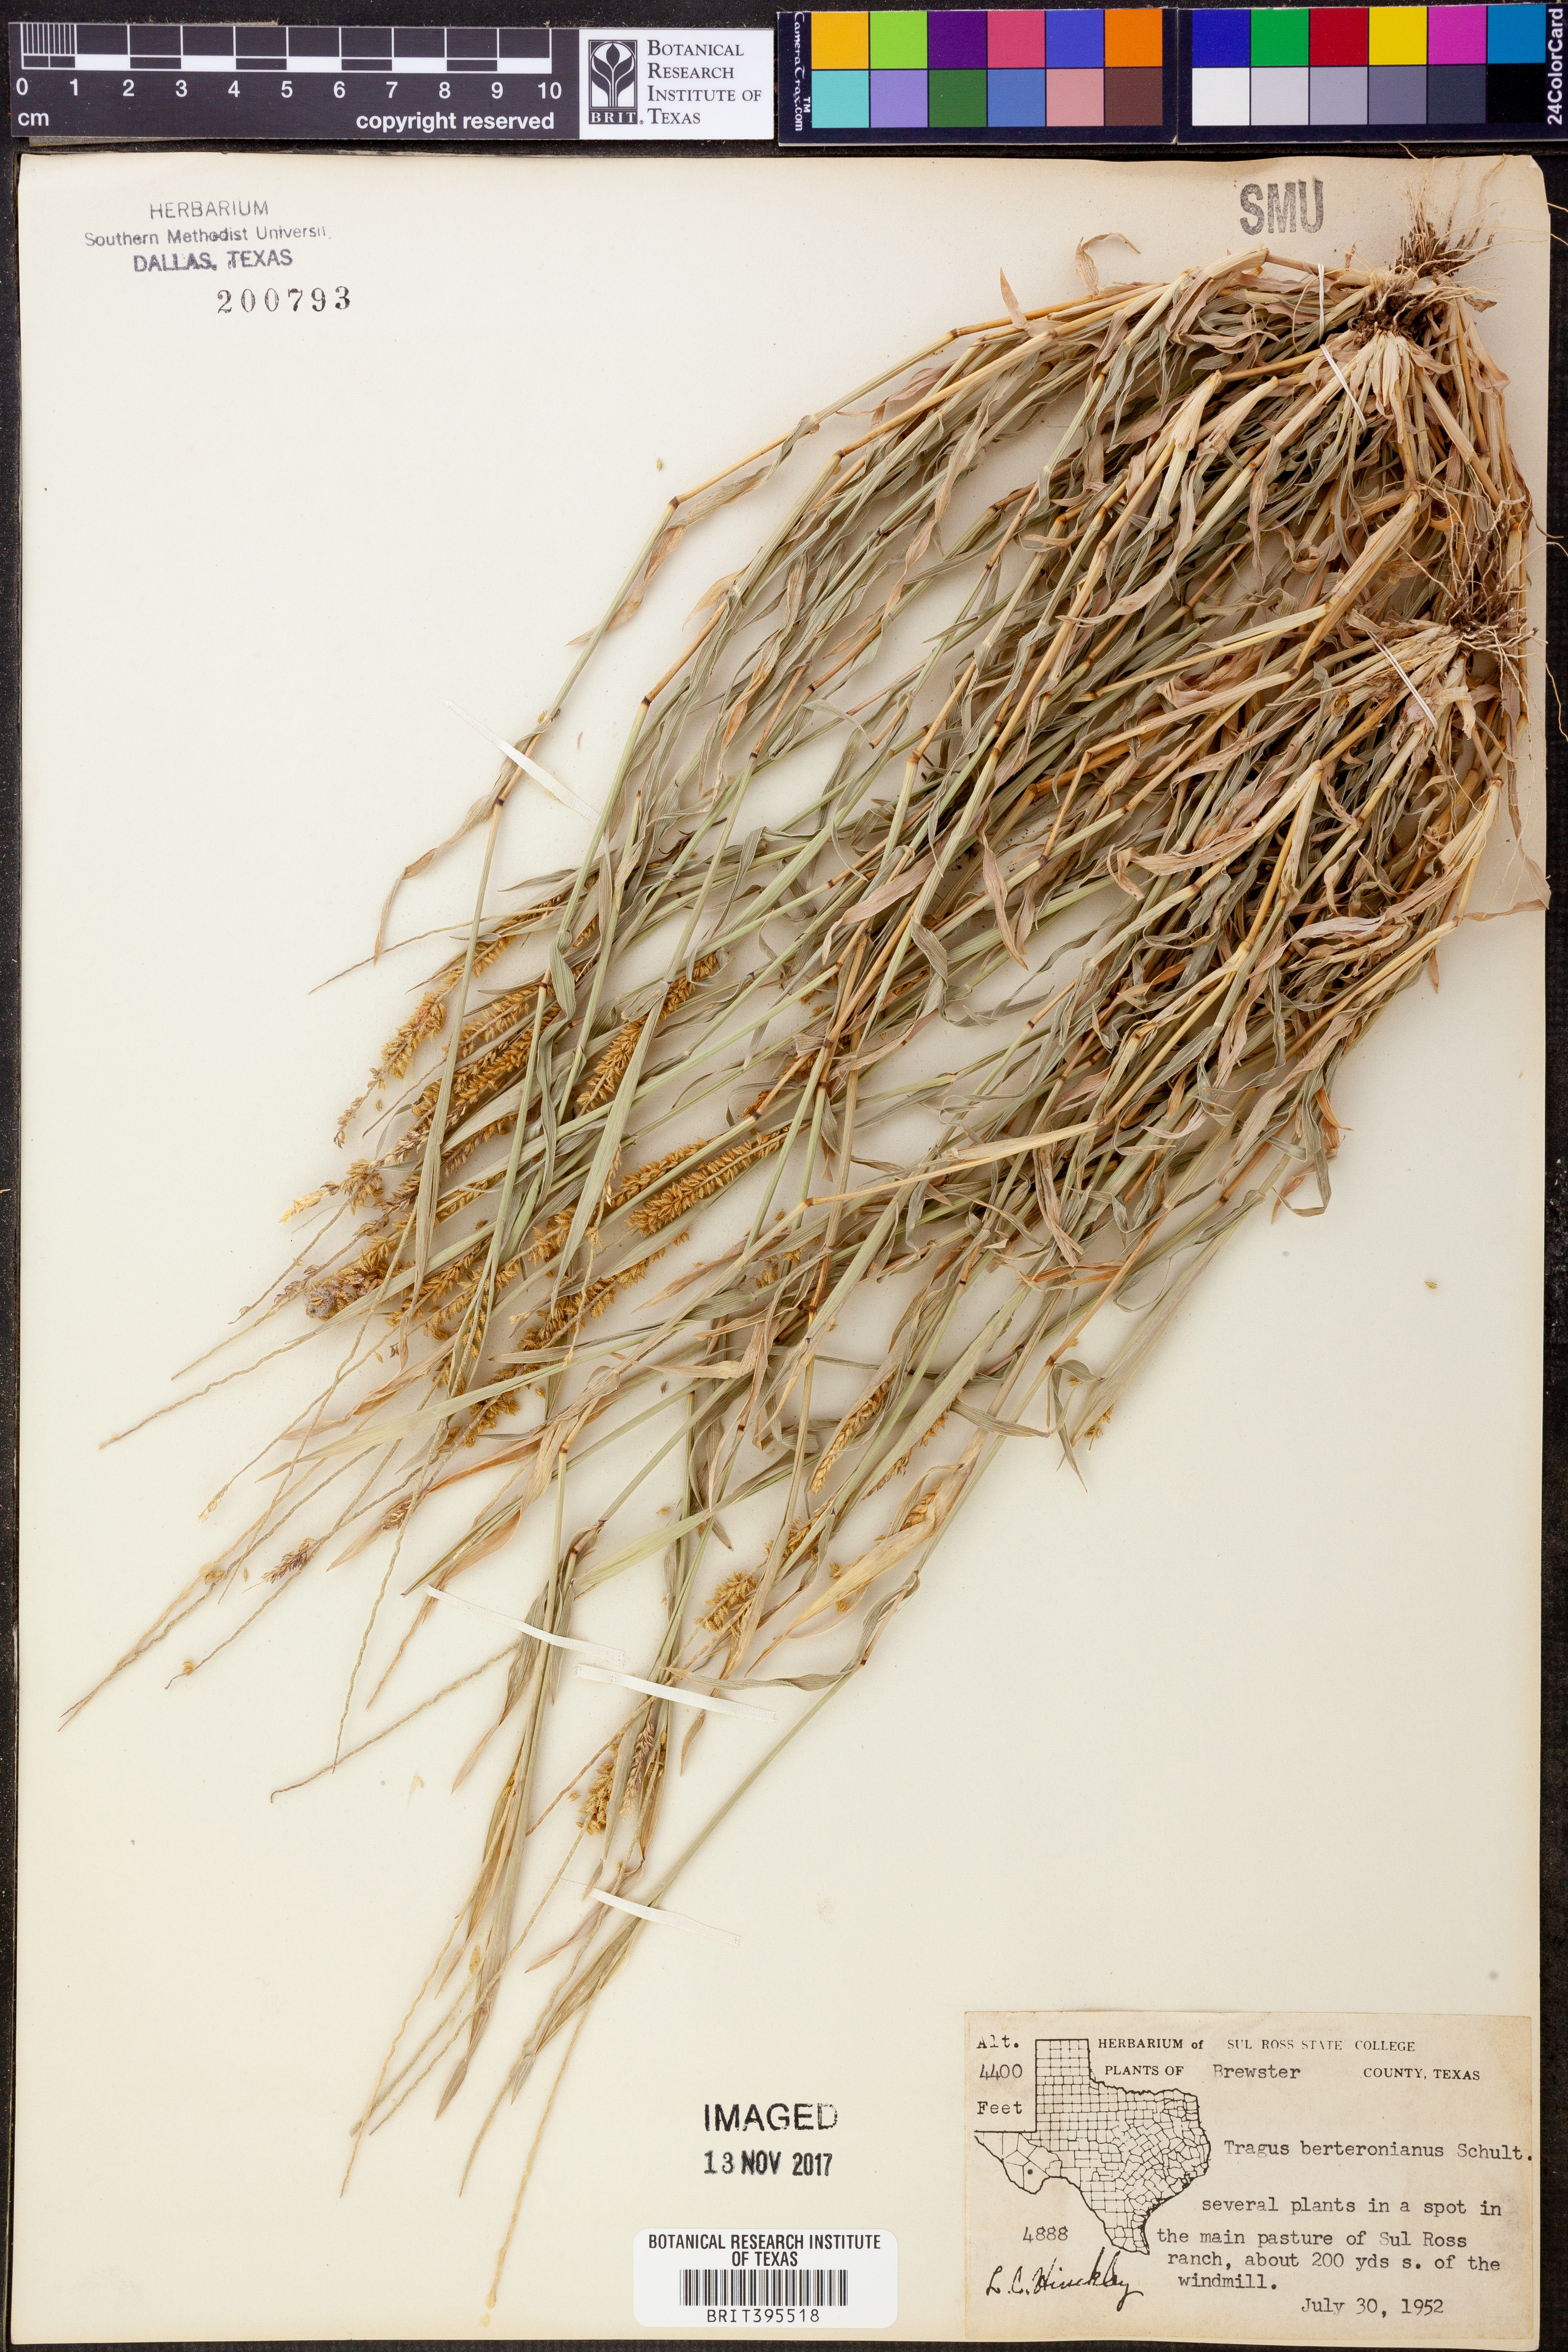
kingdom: Plantae
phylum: Tracheophyta
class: Liliopsida
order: Poales
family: Poaceae
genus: Tragus
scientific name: Tragus berteronianus
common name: African bur-grass
